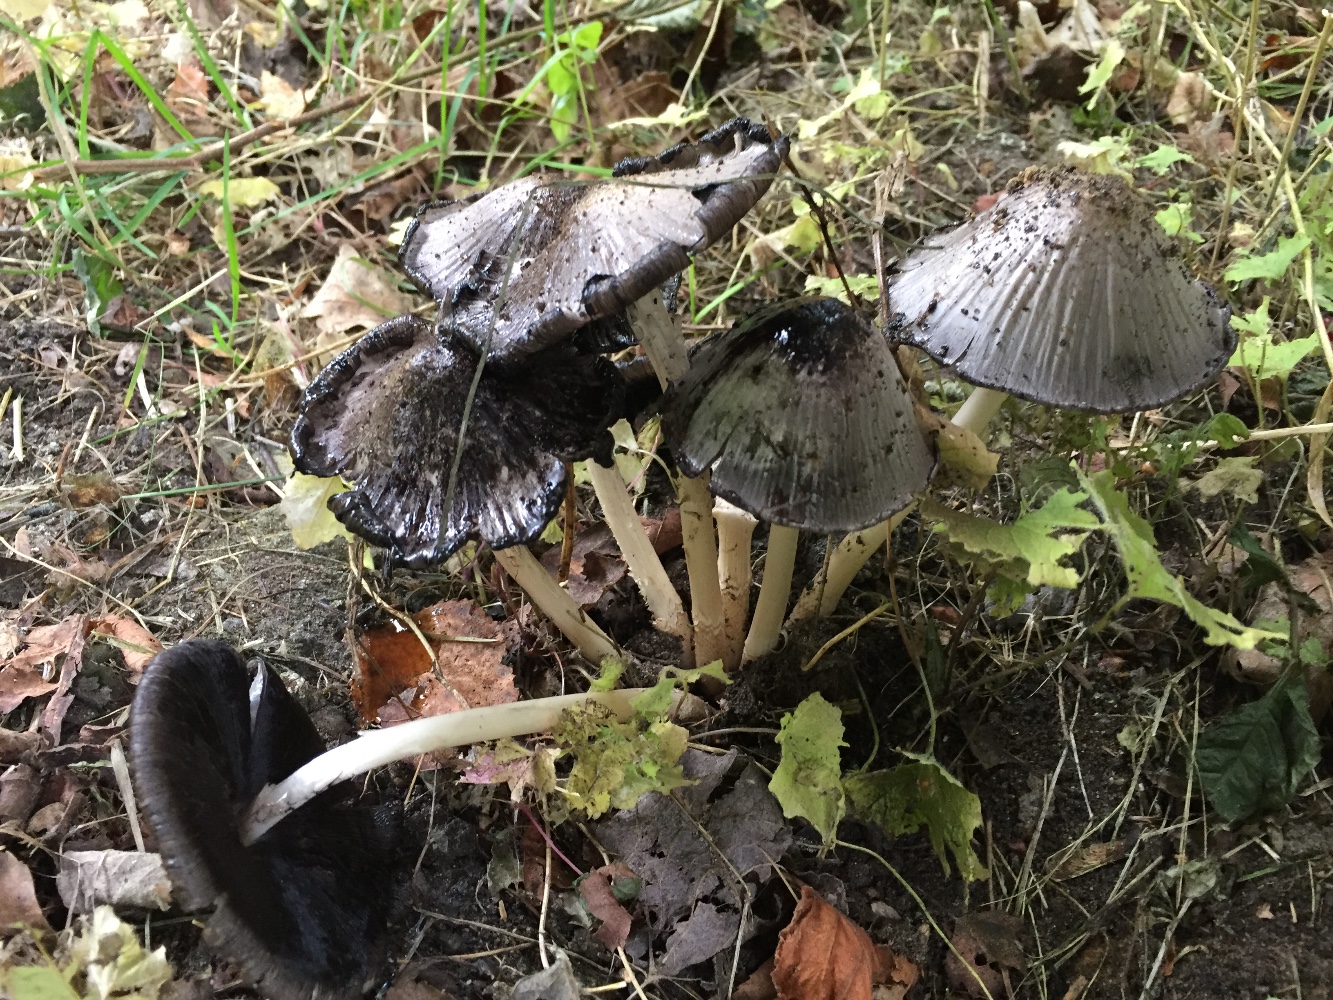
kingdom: Fungi
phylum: Basidiomycota
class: Agaricomycetes
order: Agaricales
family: Psathyrellaceae
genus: Coprinopsis
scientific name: Coprinopsis atramentaria
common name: almindelig blækhat
